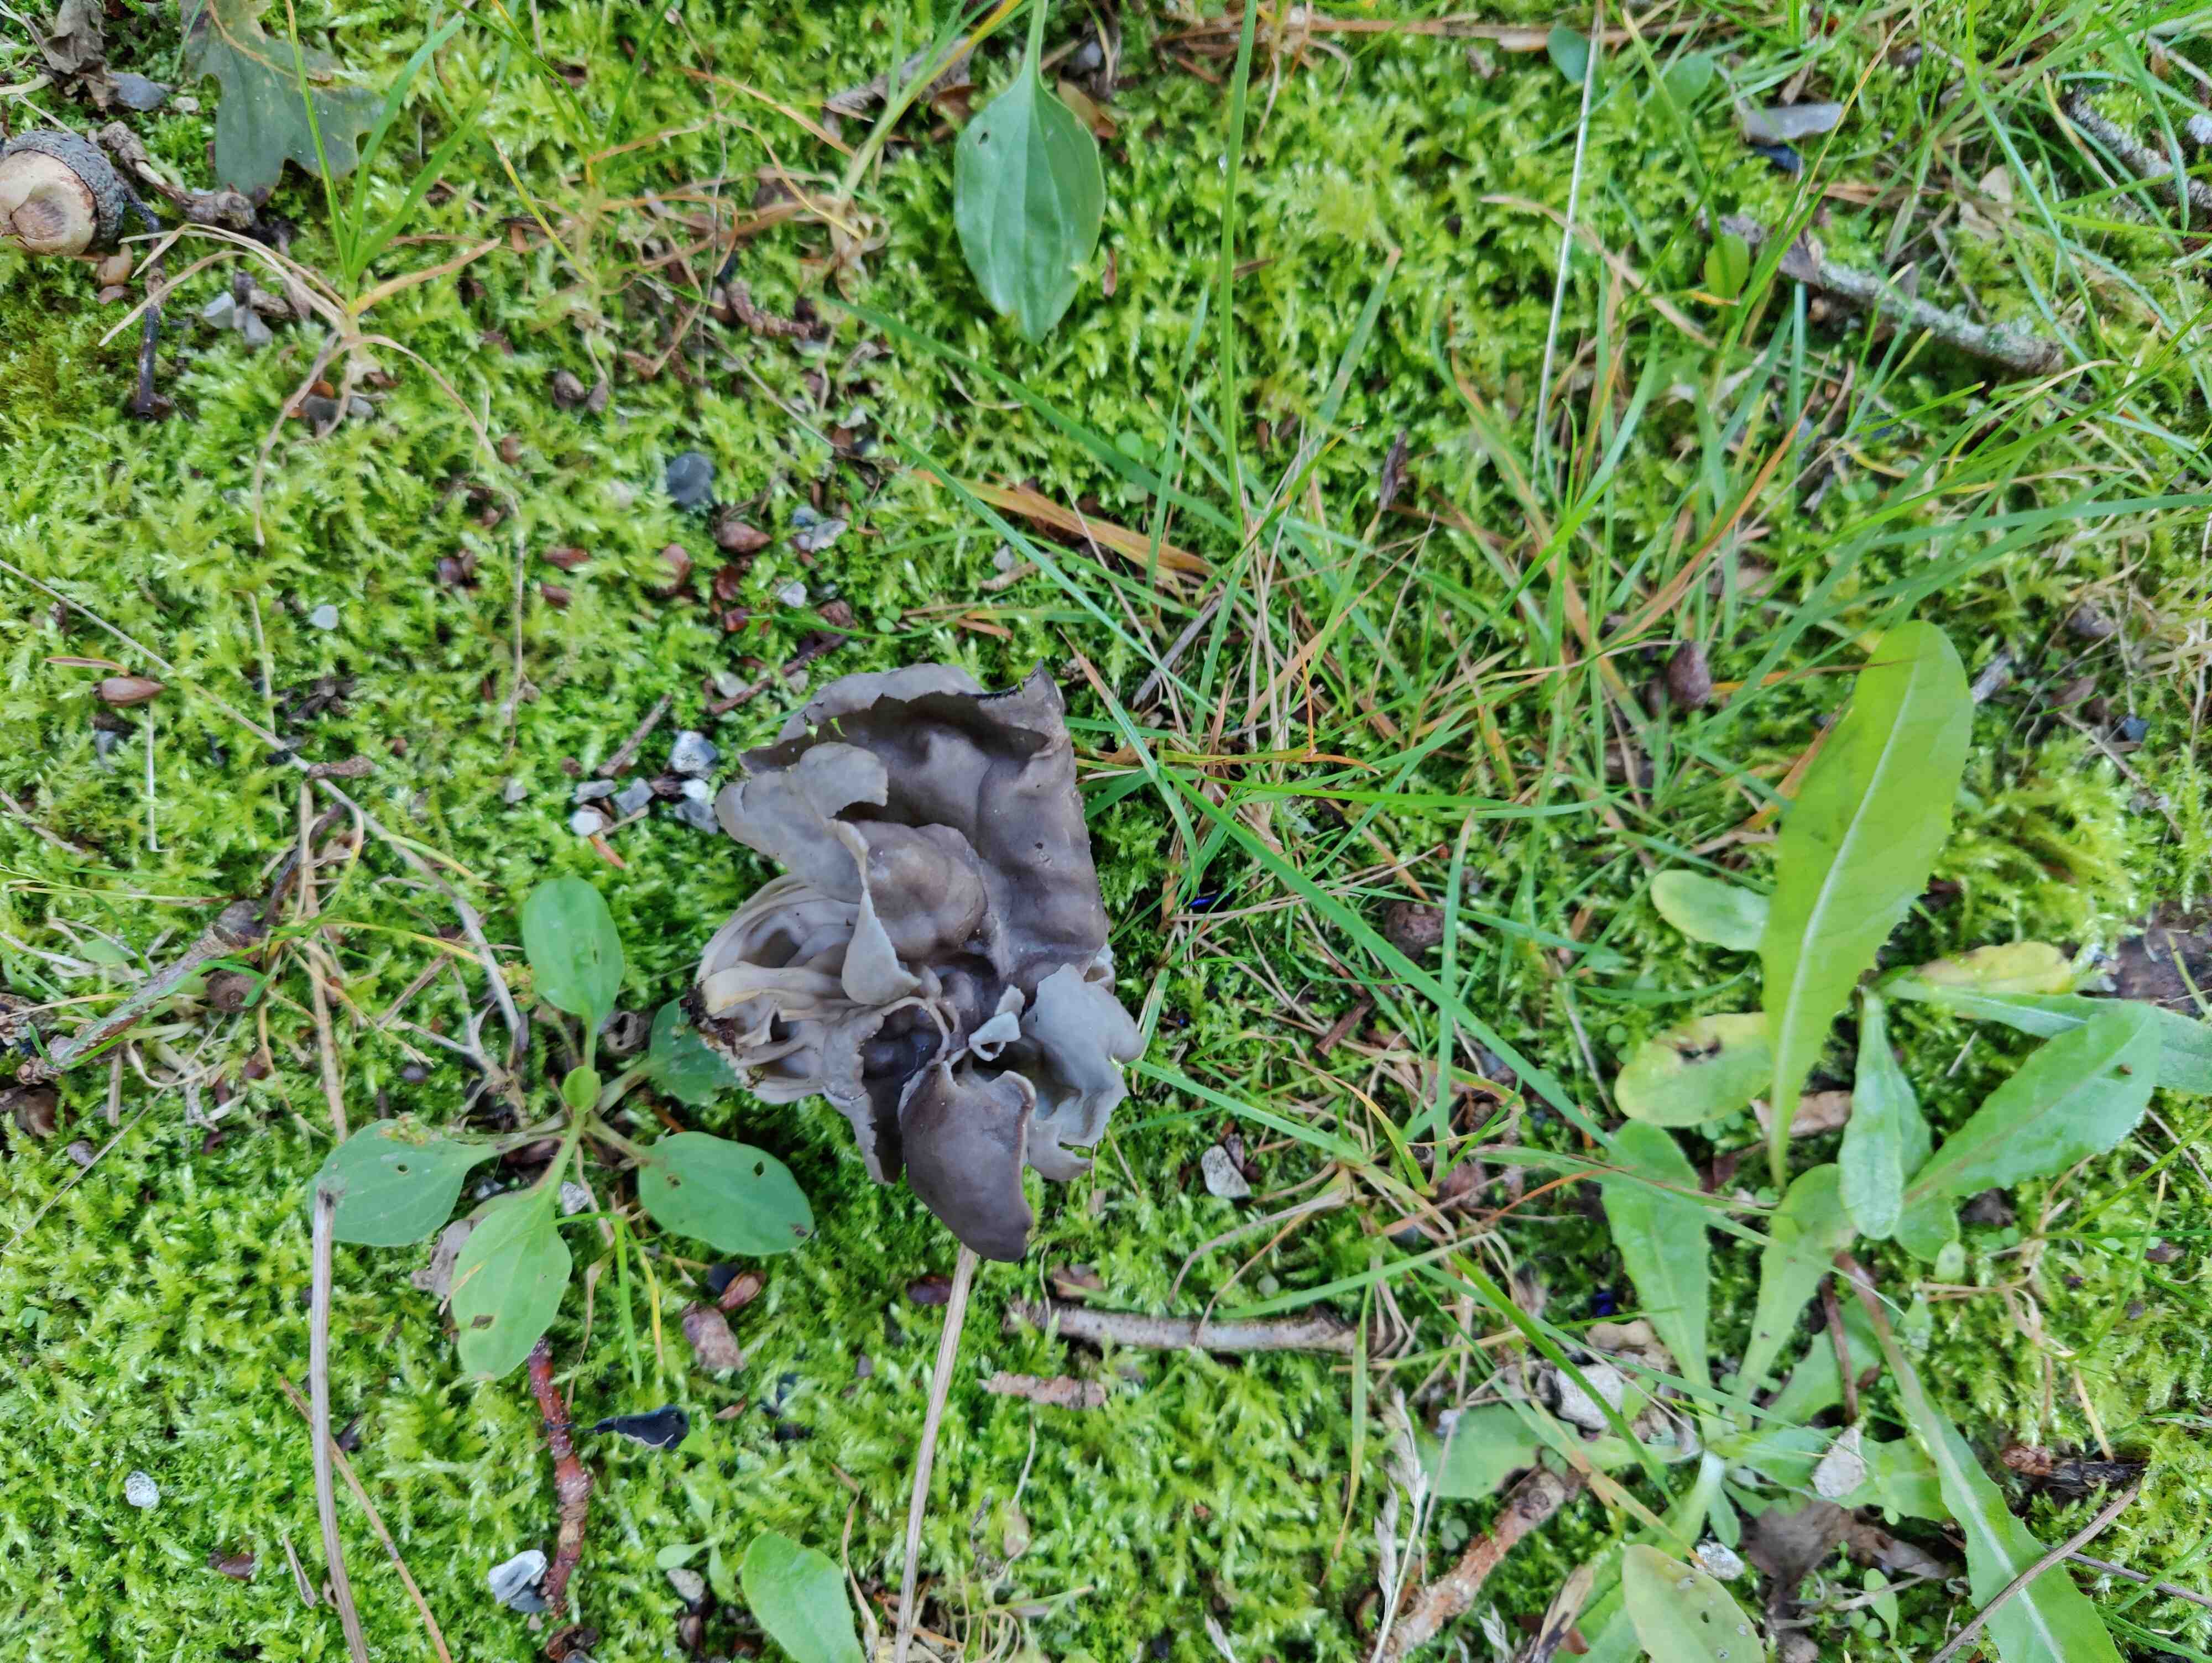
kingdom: Fungi
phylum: Ascomycota
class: Pezizomycetes
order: Pezizales
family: Helvellaceae
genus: Helvella
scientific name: Helvella lacunosa
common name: grubet foldhat
